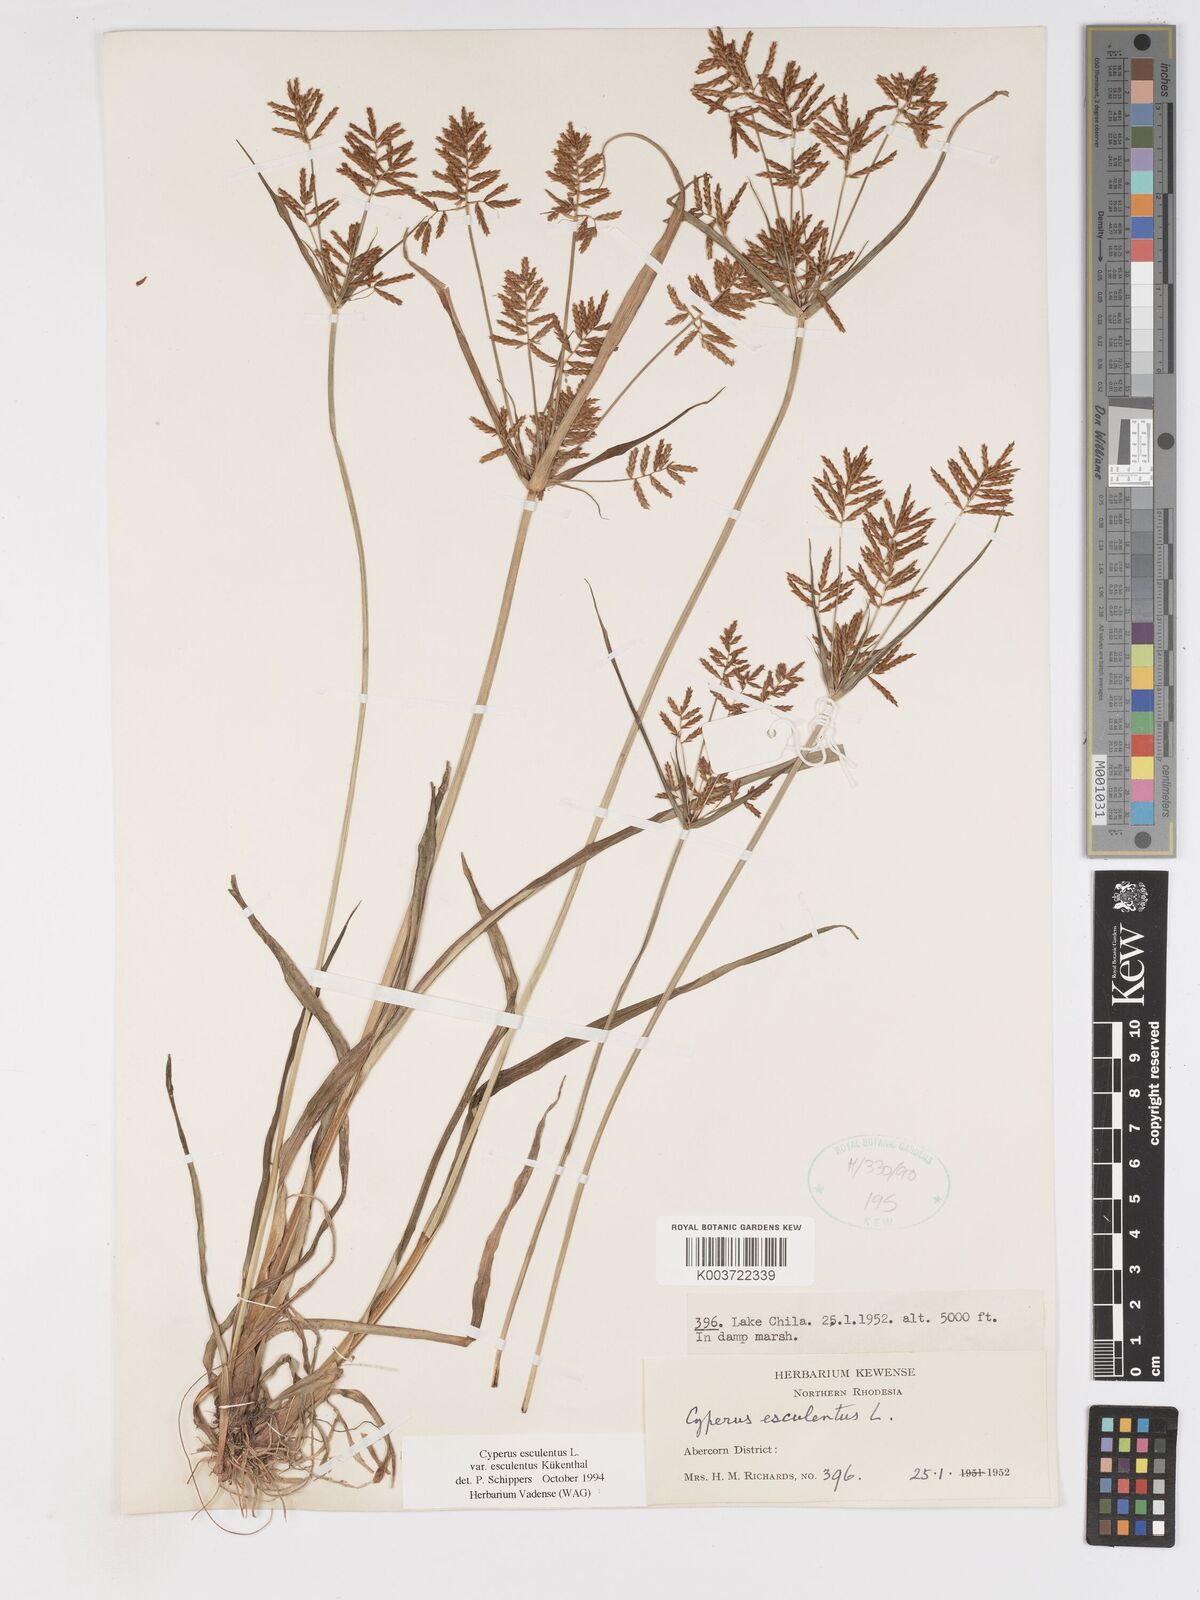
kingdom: Plantae
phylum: Tracheophyta
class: Liliopsida
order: Poales
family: Cyperaceae
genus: Cyperus
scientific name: Cyperus esculentus
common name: Yellow nutsedge
